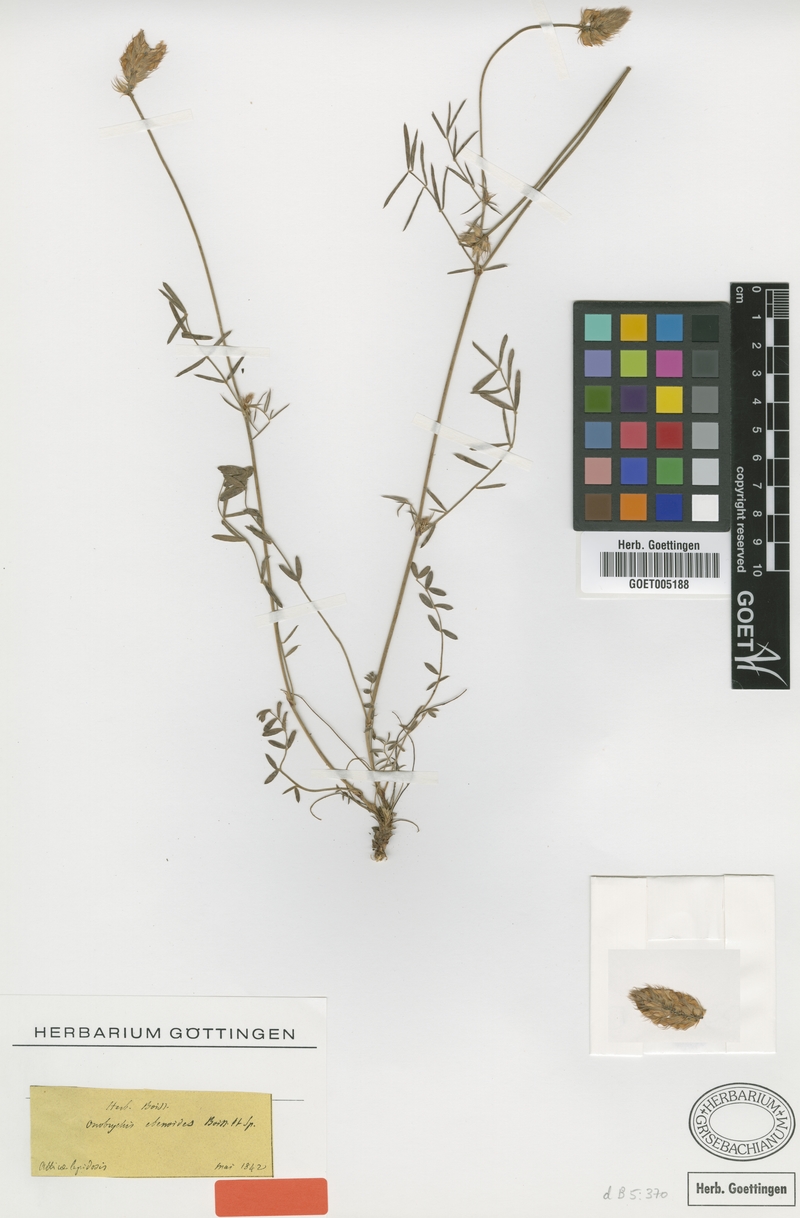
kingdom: Plantae
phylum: Tracheophyta
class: Magnoliopsida
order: Fabales
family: Fabaceae
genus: Onobrychis
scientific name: Onobrychis ebenoides
